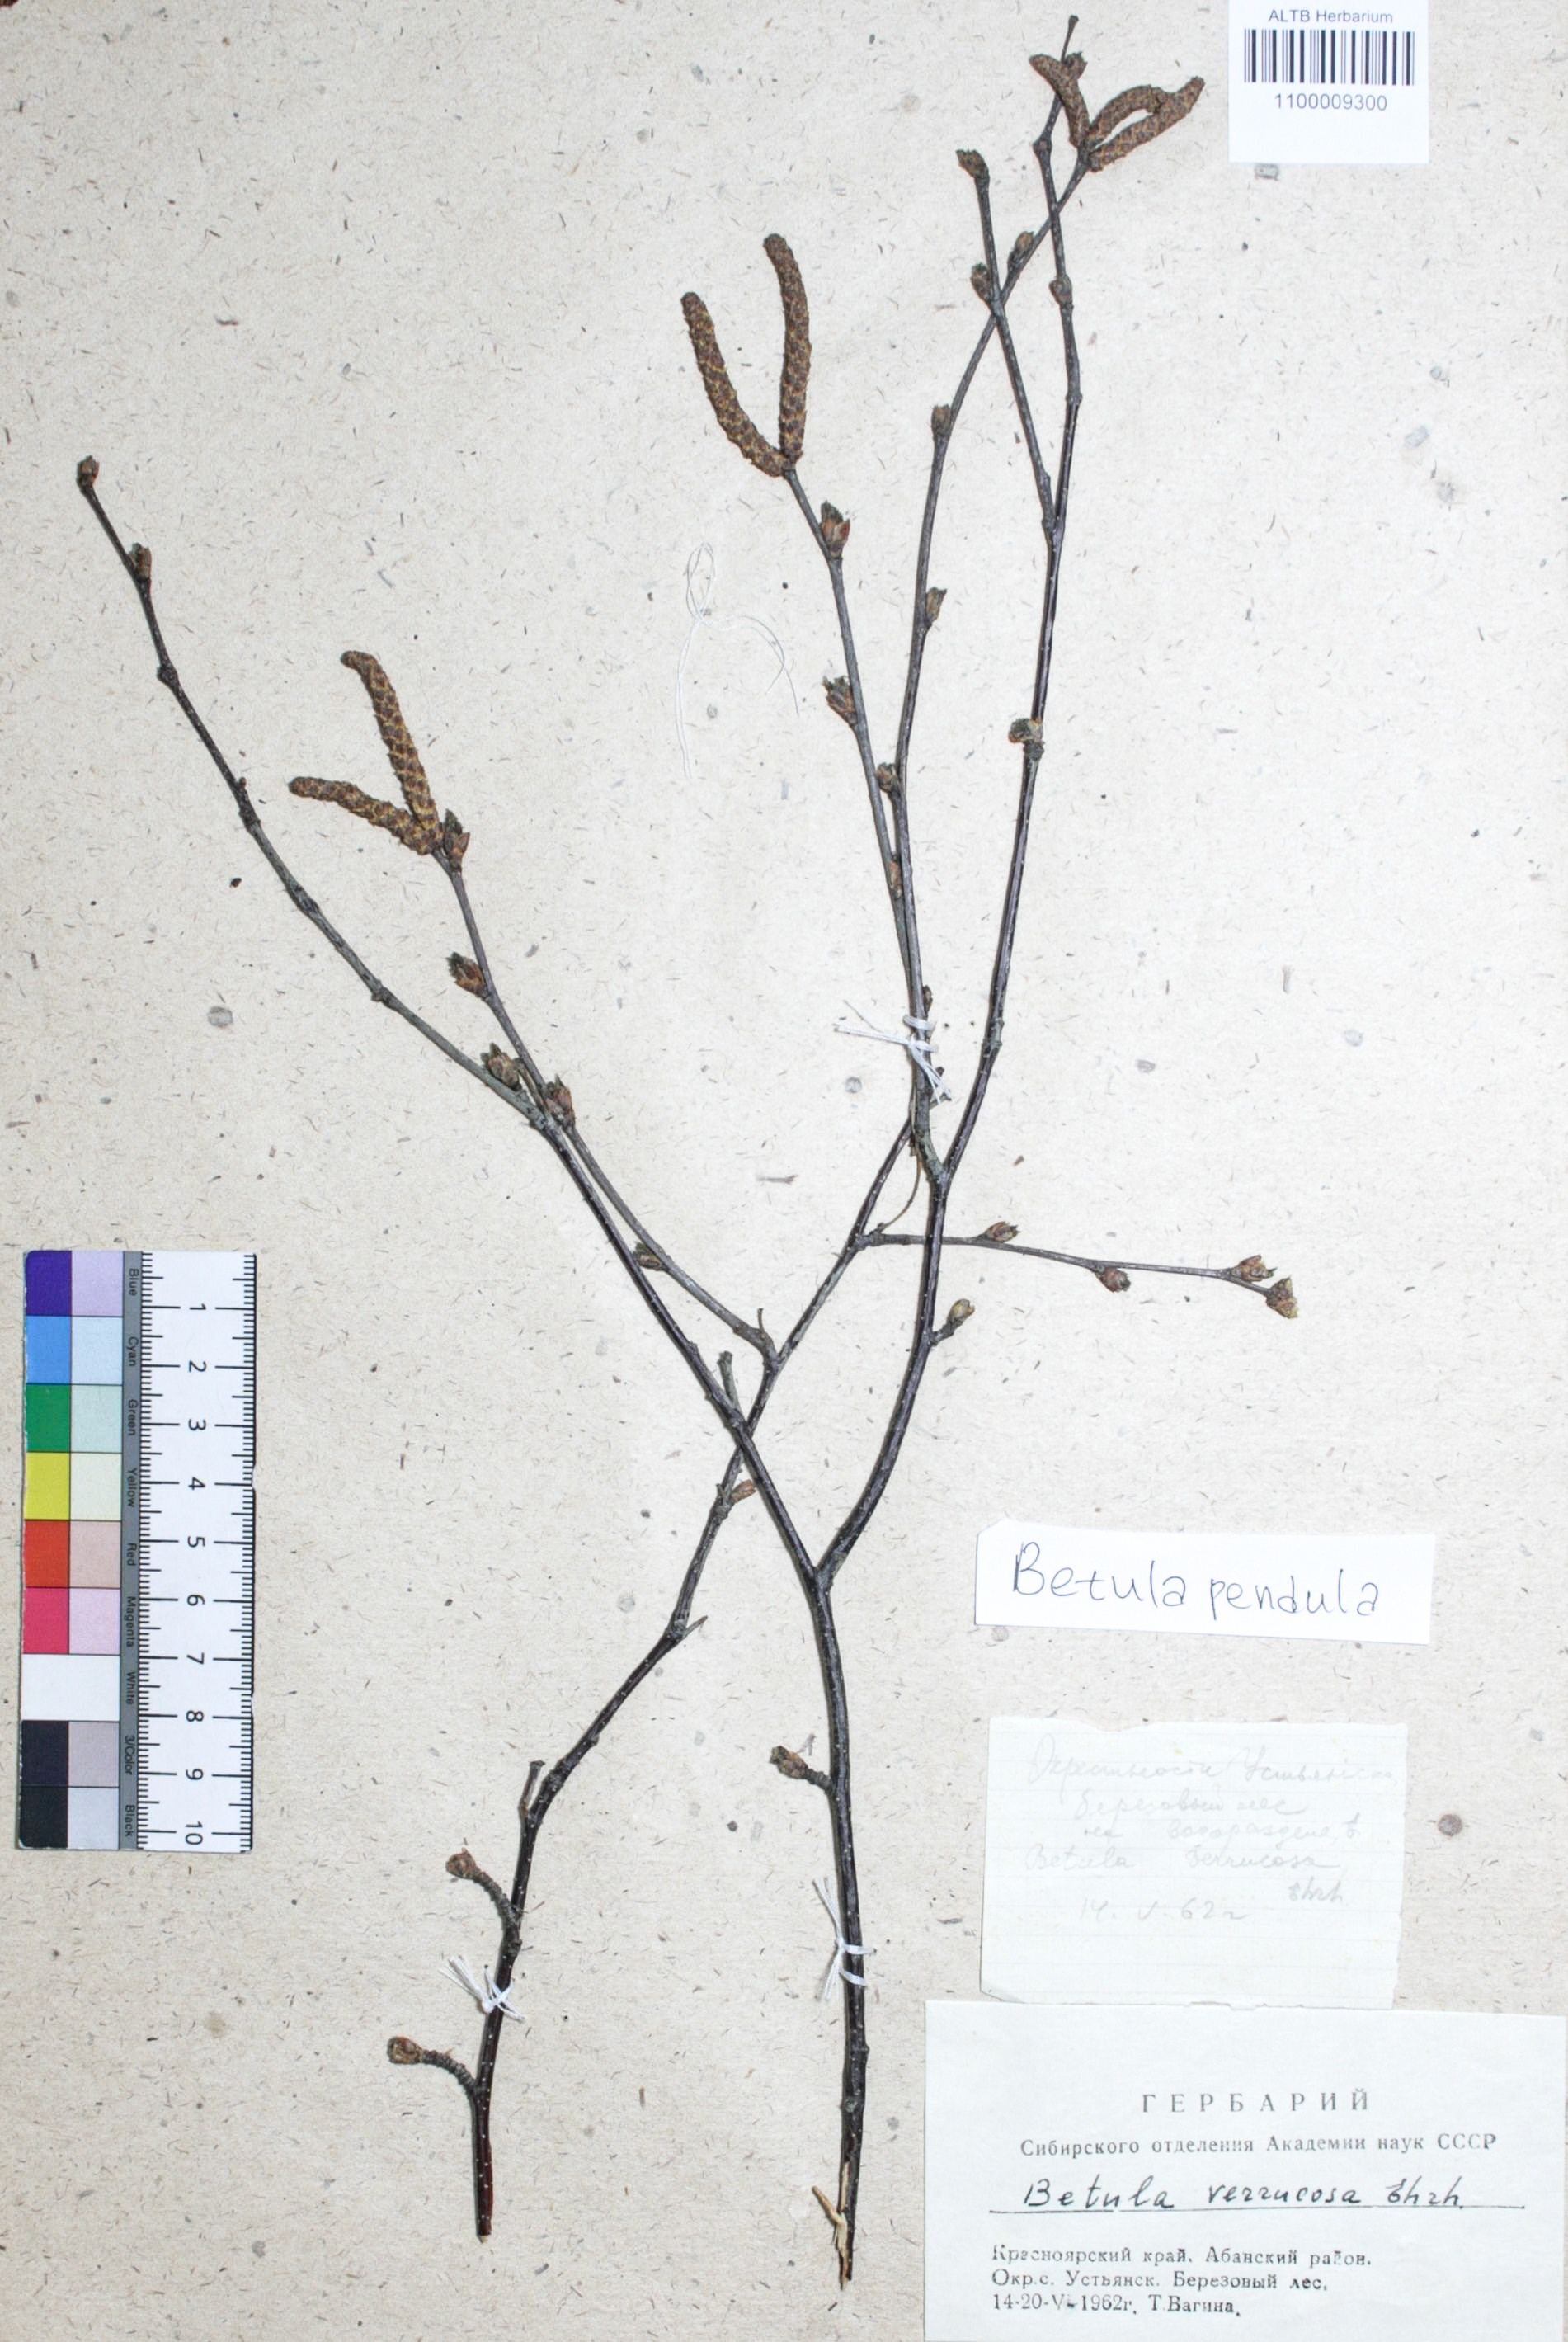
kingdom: Plantae
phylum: Tracheophyta
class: Magnoliopsida
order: Fagales
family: Betulaceae
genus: Betula
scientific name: Betula pendula
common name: Silver birch
